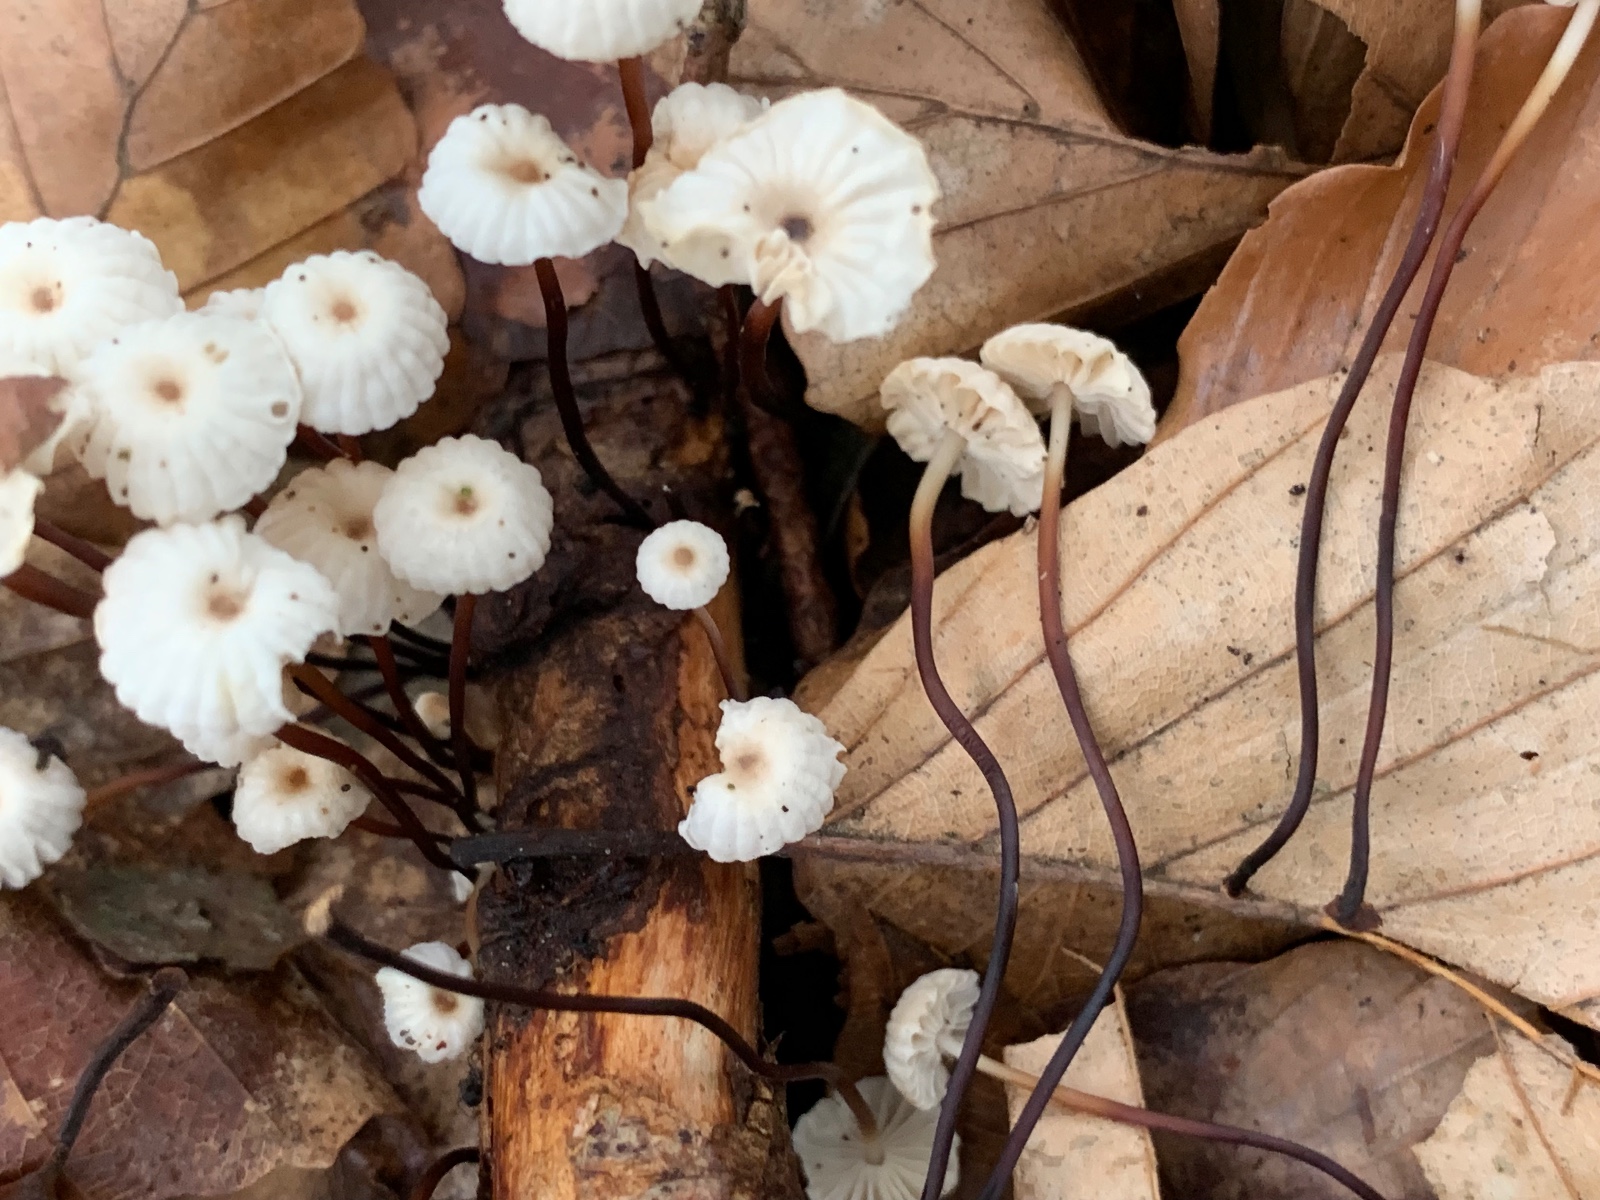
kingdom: Fungi
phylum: Basidiomycota
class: Agaricomycetes
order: Agaricales
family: Marasmiaceae
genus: Marasmius
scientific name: Marasmius rotula
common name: hjul-bruskhat
